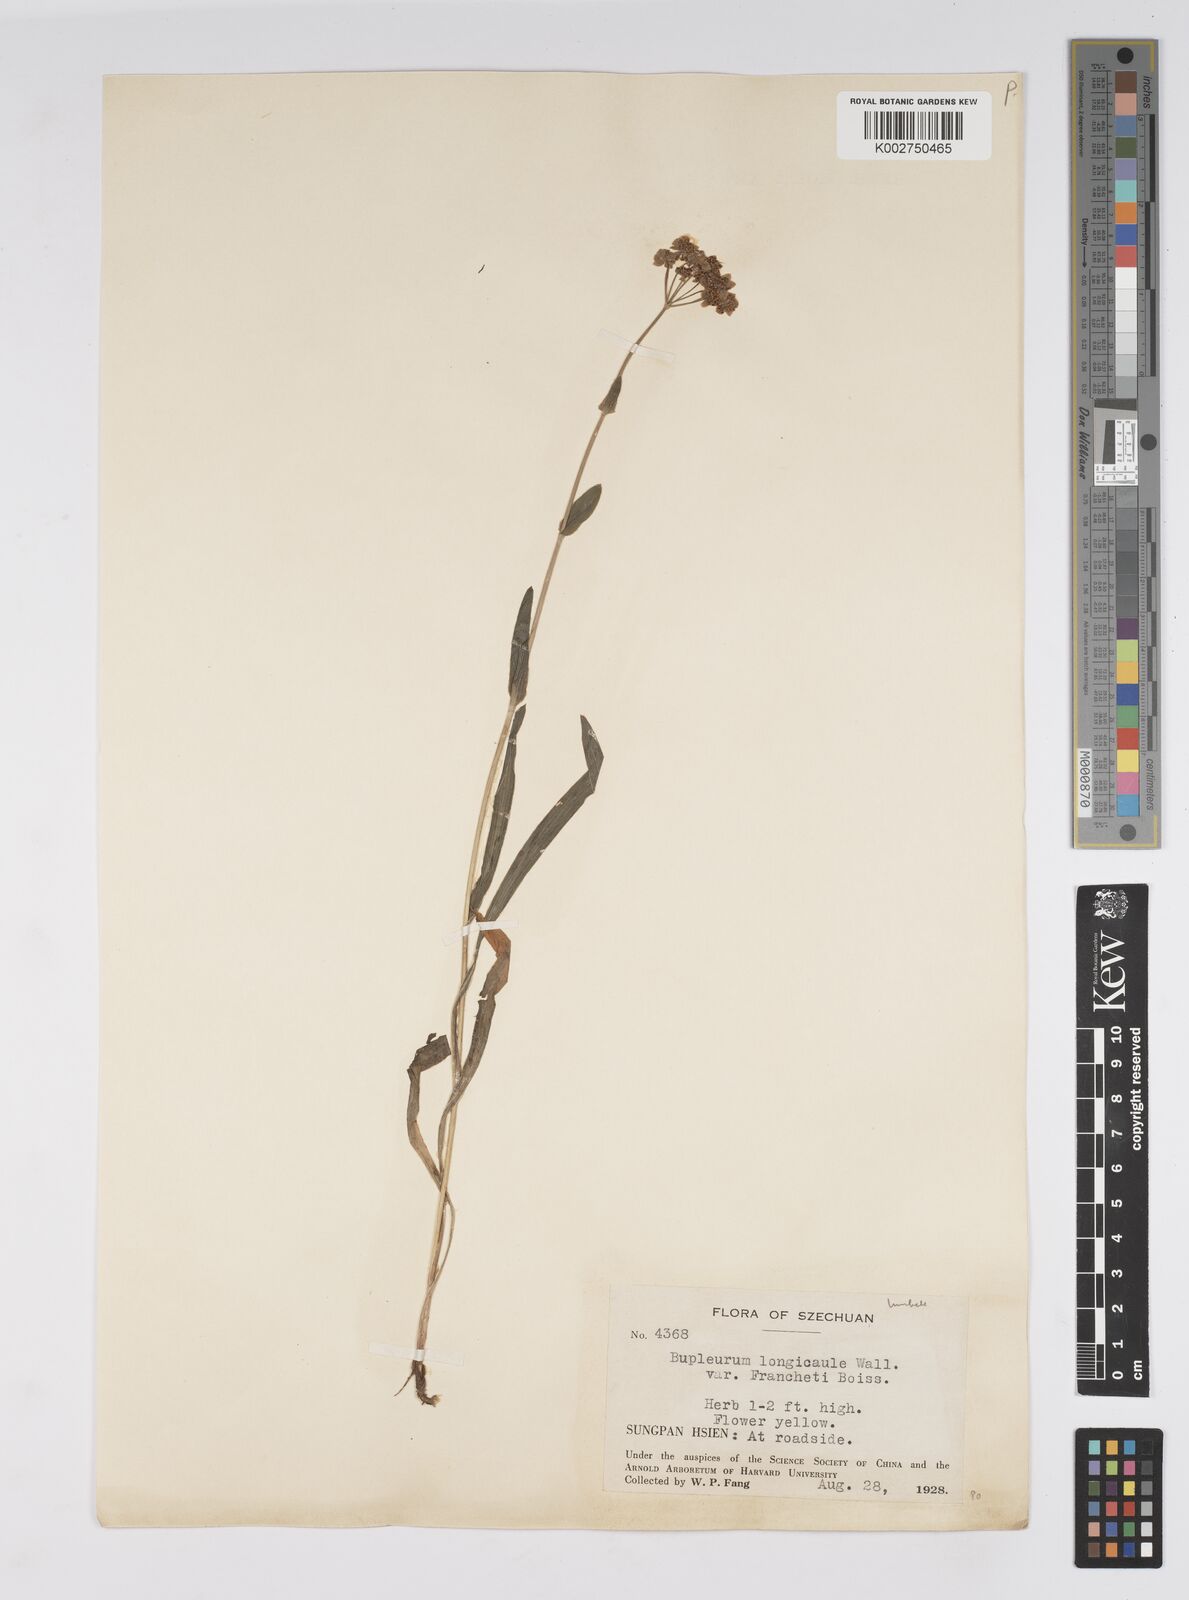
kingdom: Plantae
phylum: Tracheophyta
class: Magnoliopsida
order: Apiales
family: Apiaceae
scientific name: Apiaceae
